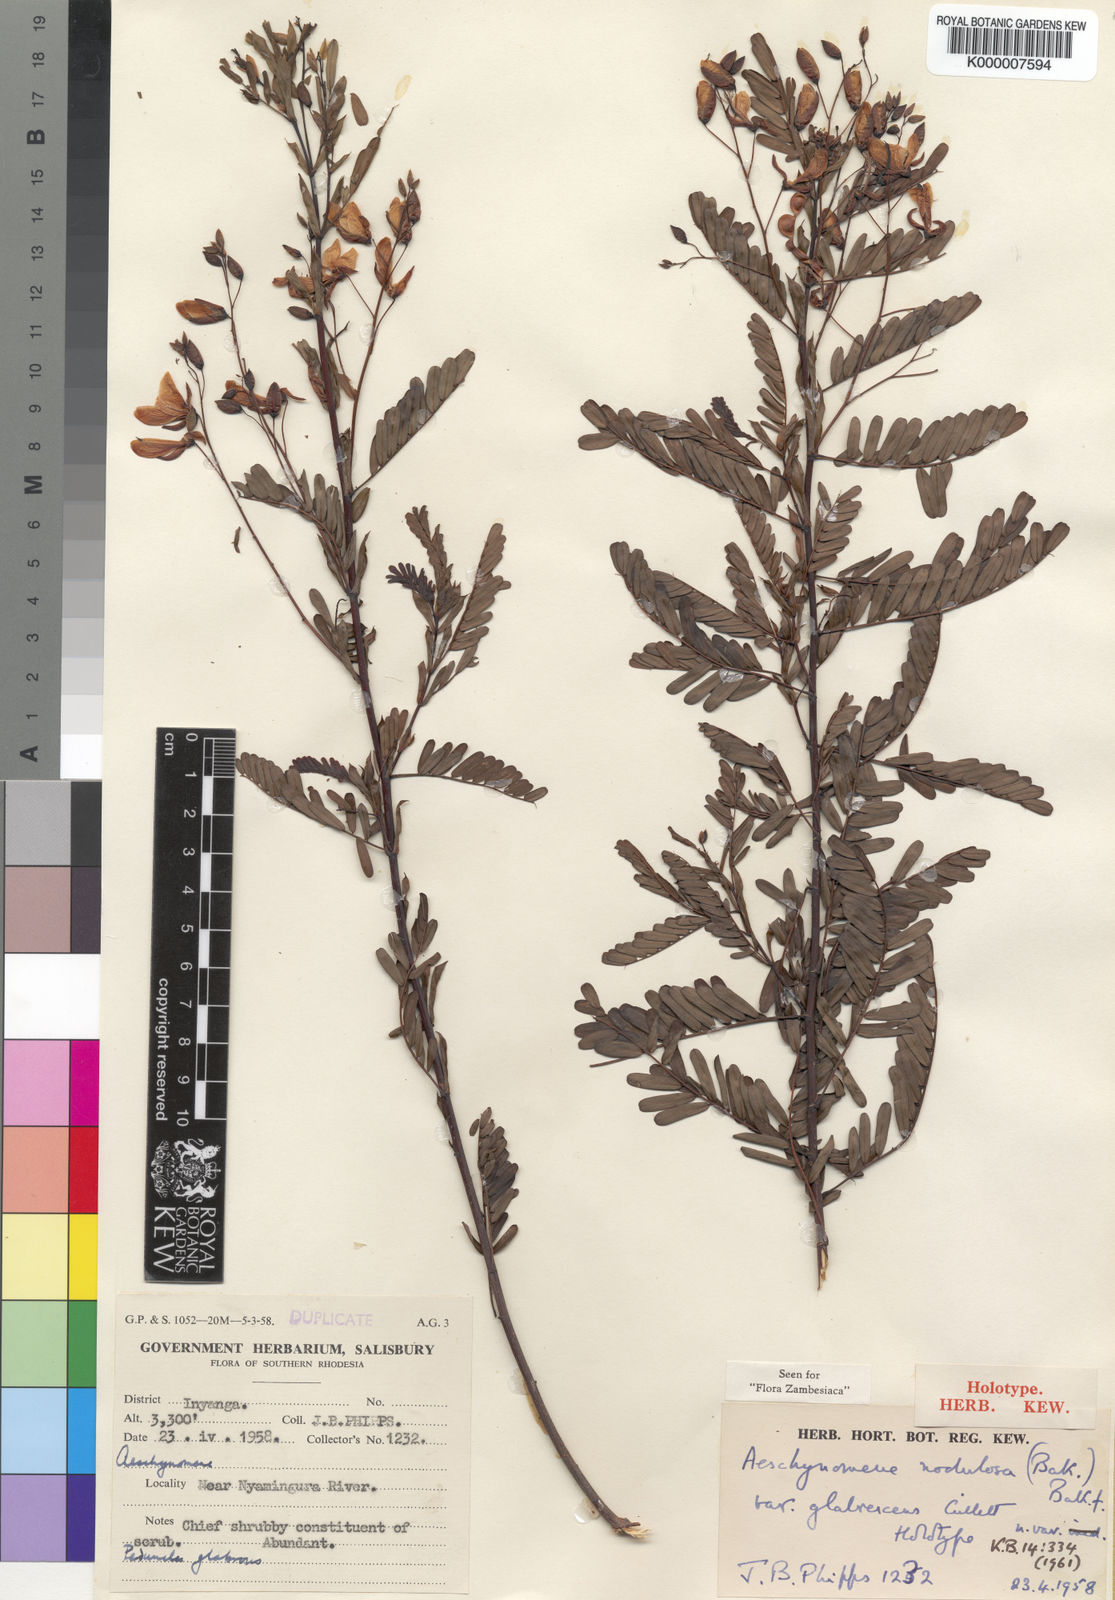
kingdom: Plantae
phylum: Tracheophyta
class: Magnoliopsida
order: Fabales
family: Fabaceae
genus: Aeschynomene
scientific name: Aeschynomene nodulosa
